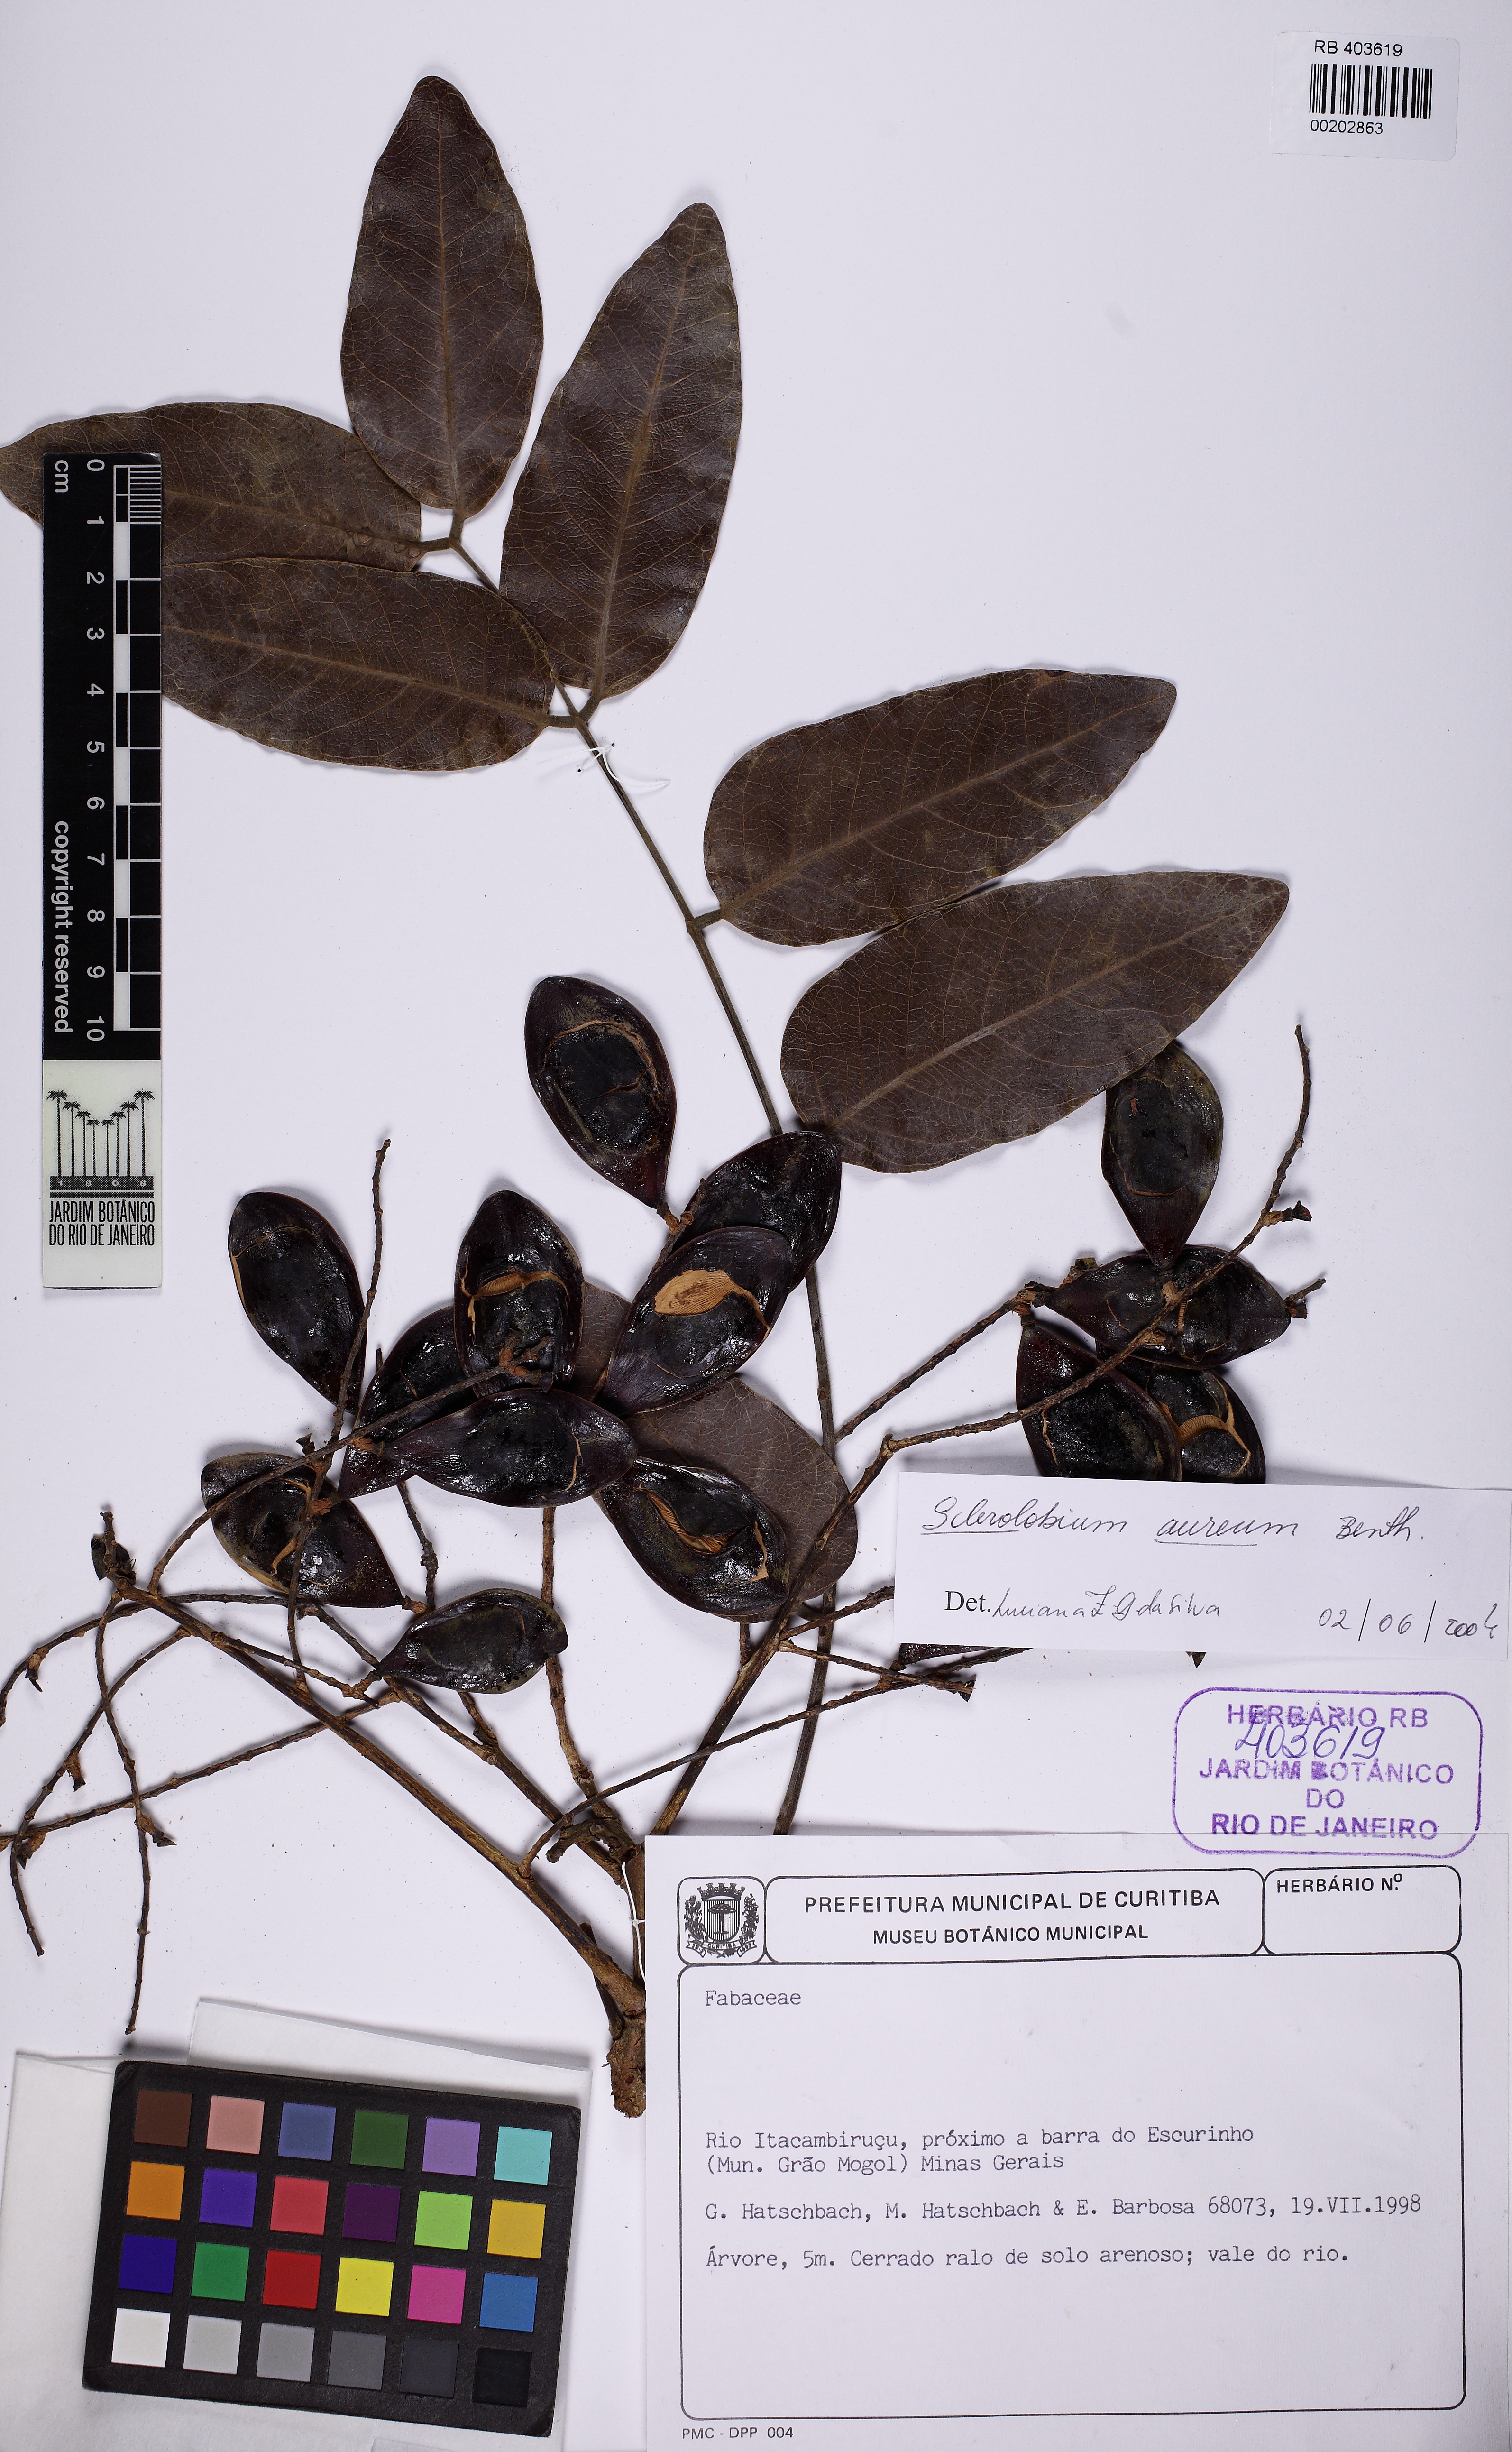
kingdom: Plantae
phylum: Tracheophyta
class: Magnoliopsida
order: Fabales
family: Fabaceae
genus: Tachigali
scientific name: Tachigali aurea
